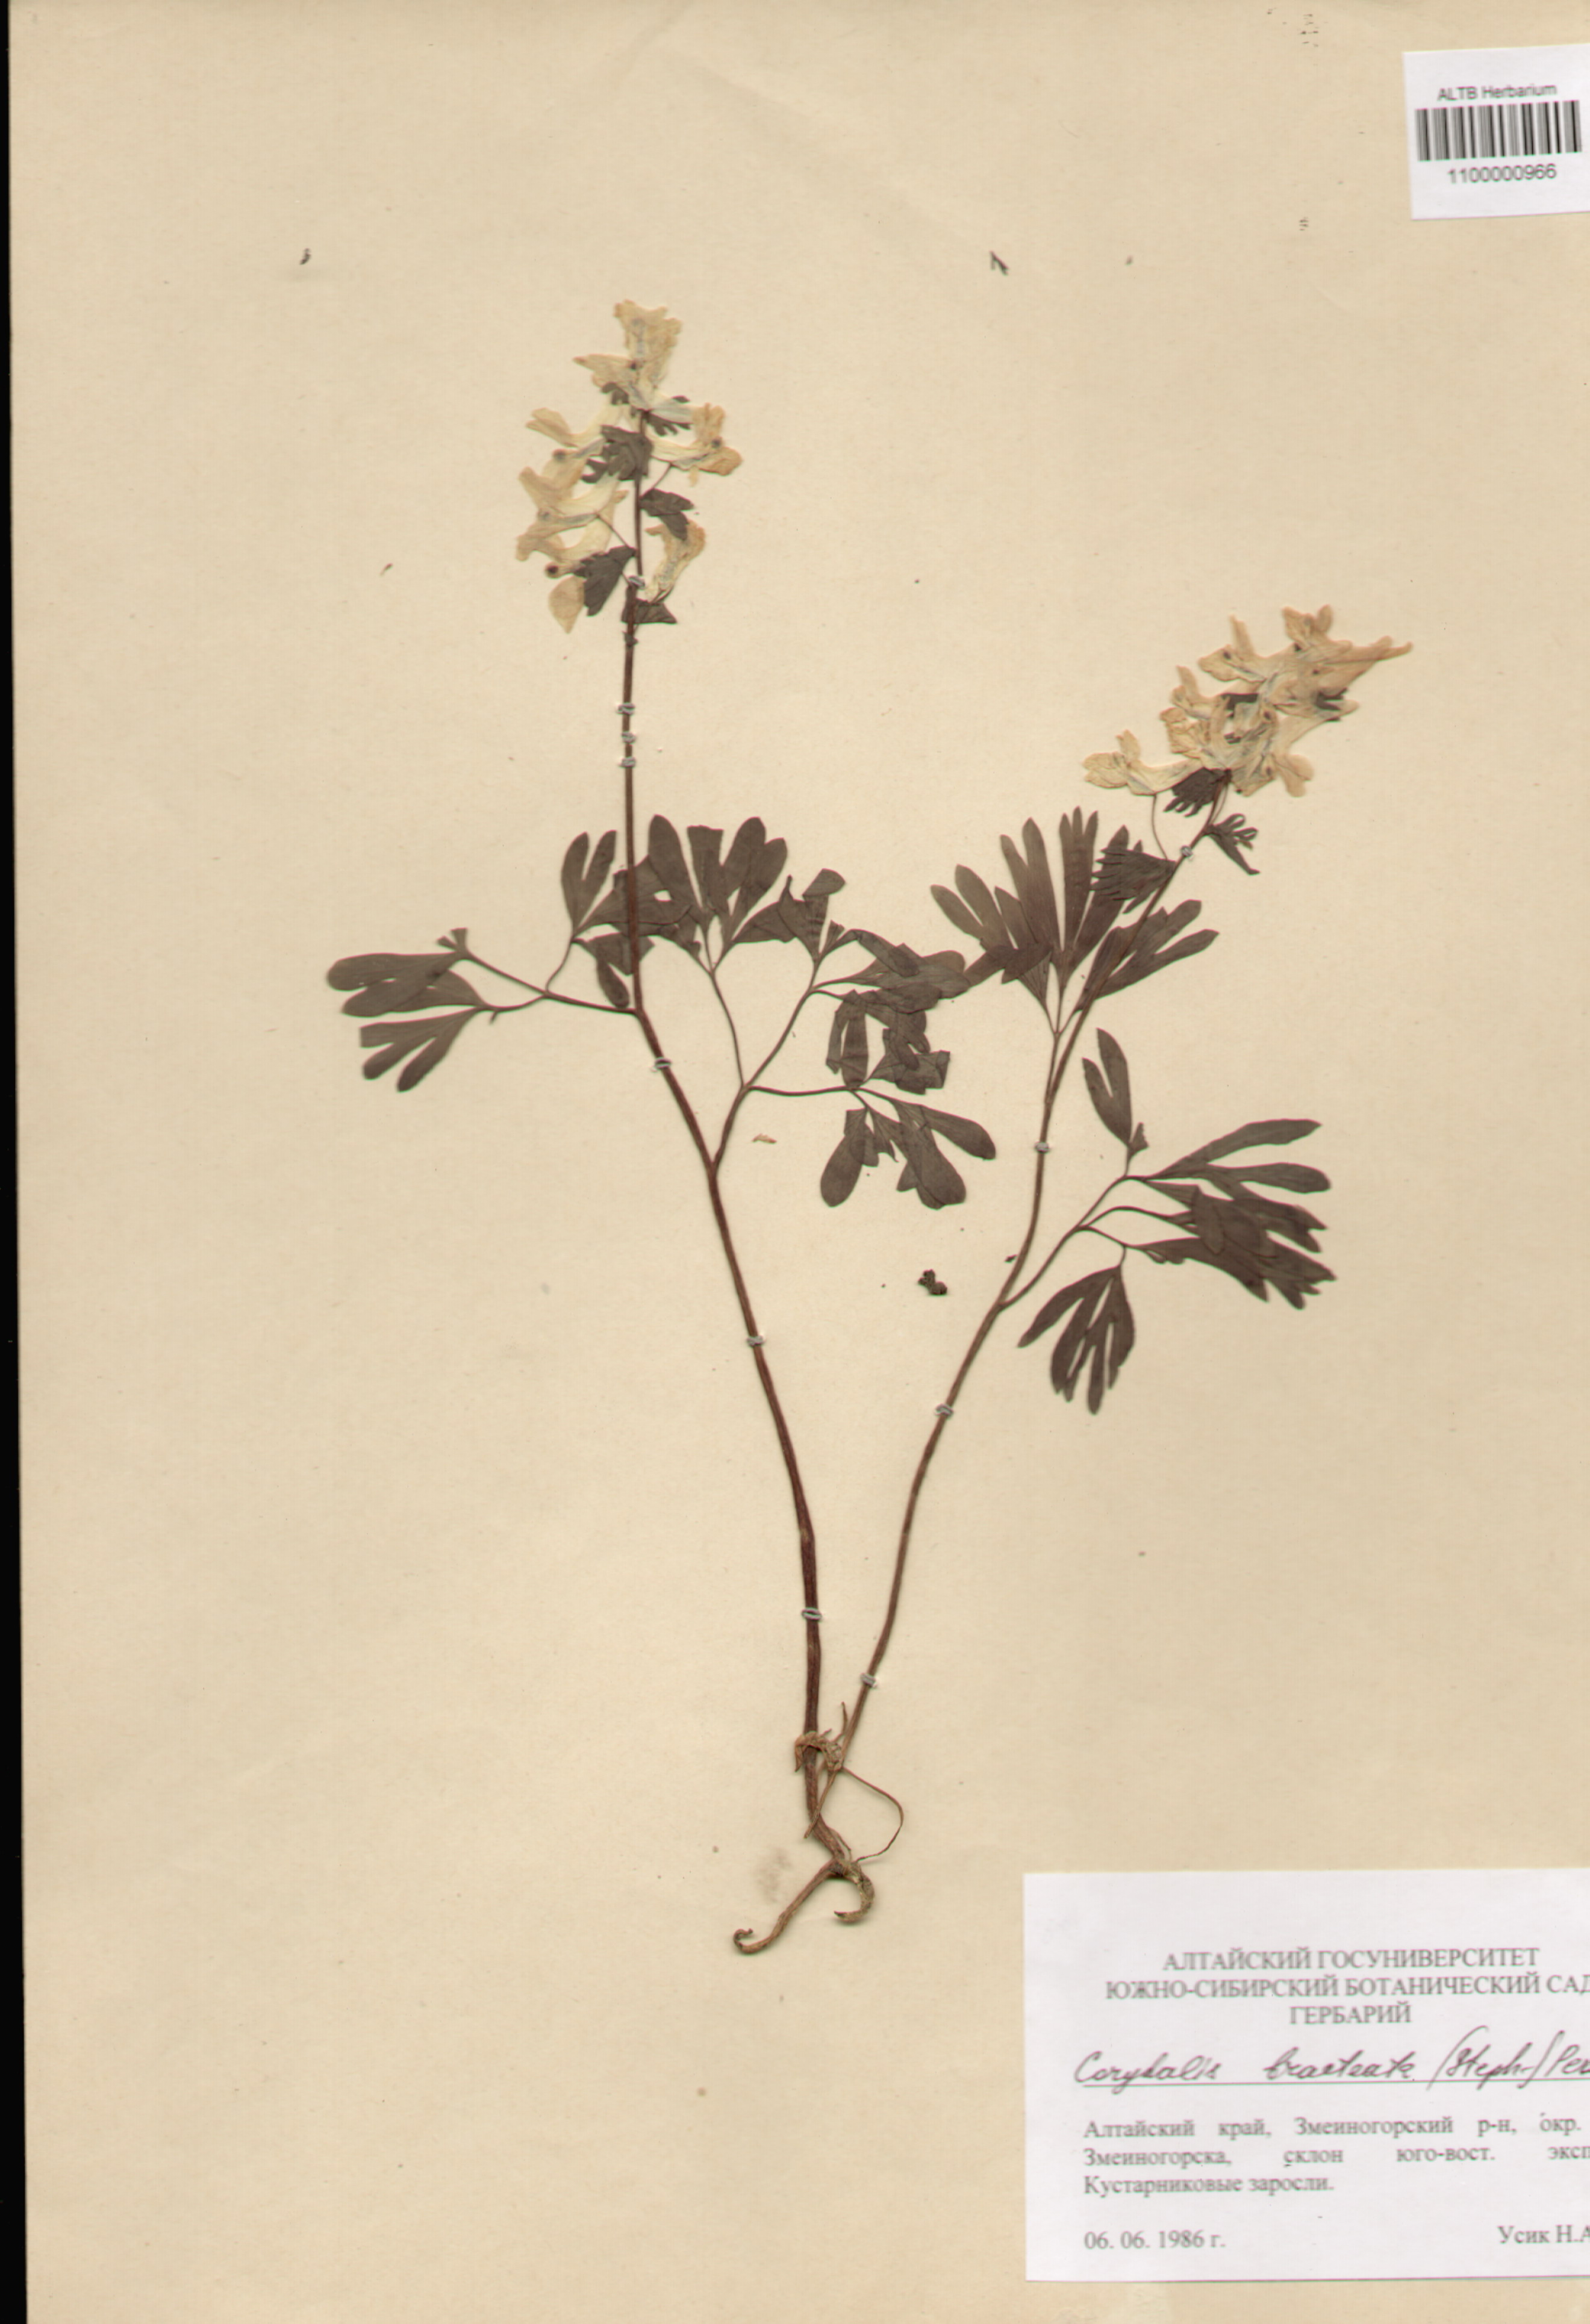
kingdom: Plantae
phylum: Tracheophyta
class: Magnoliopsida
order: Ranunculales
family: Papaveraceae
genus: Corydalis
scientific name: Corydalis bracteata
